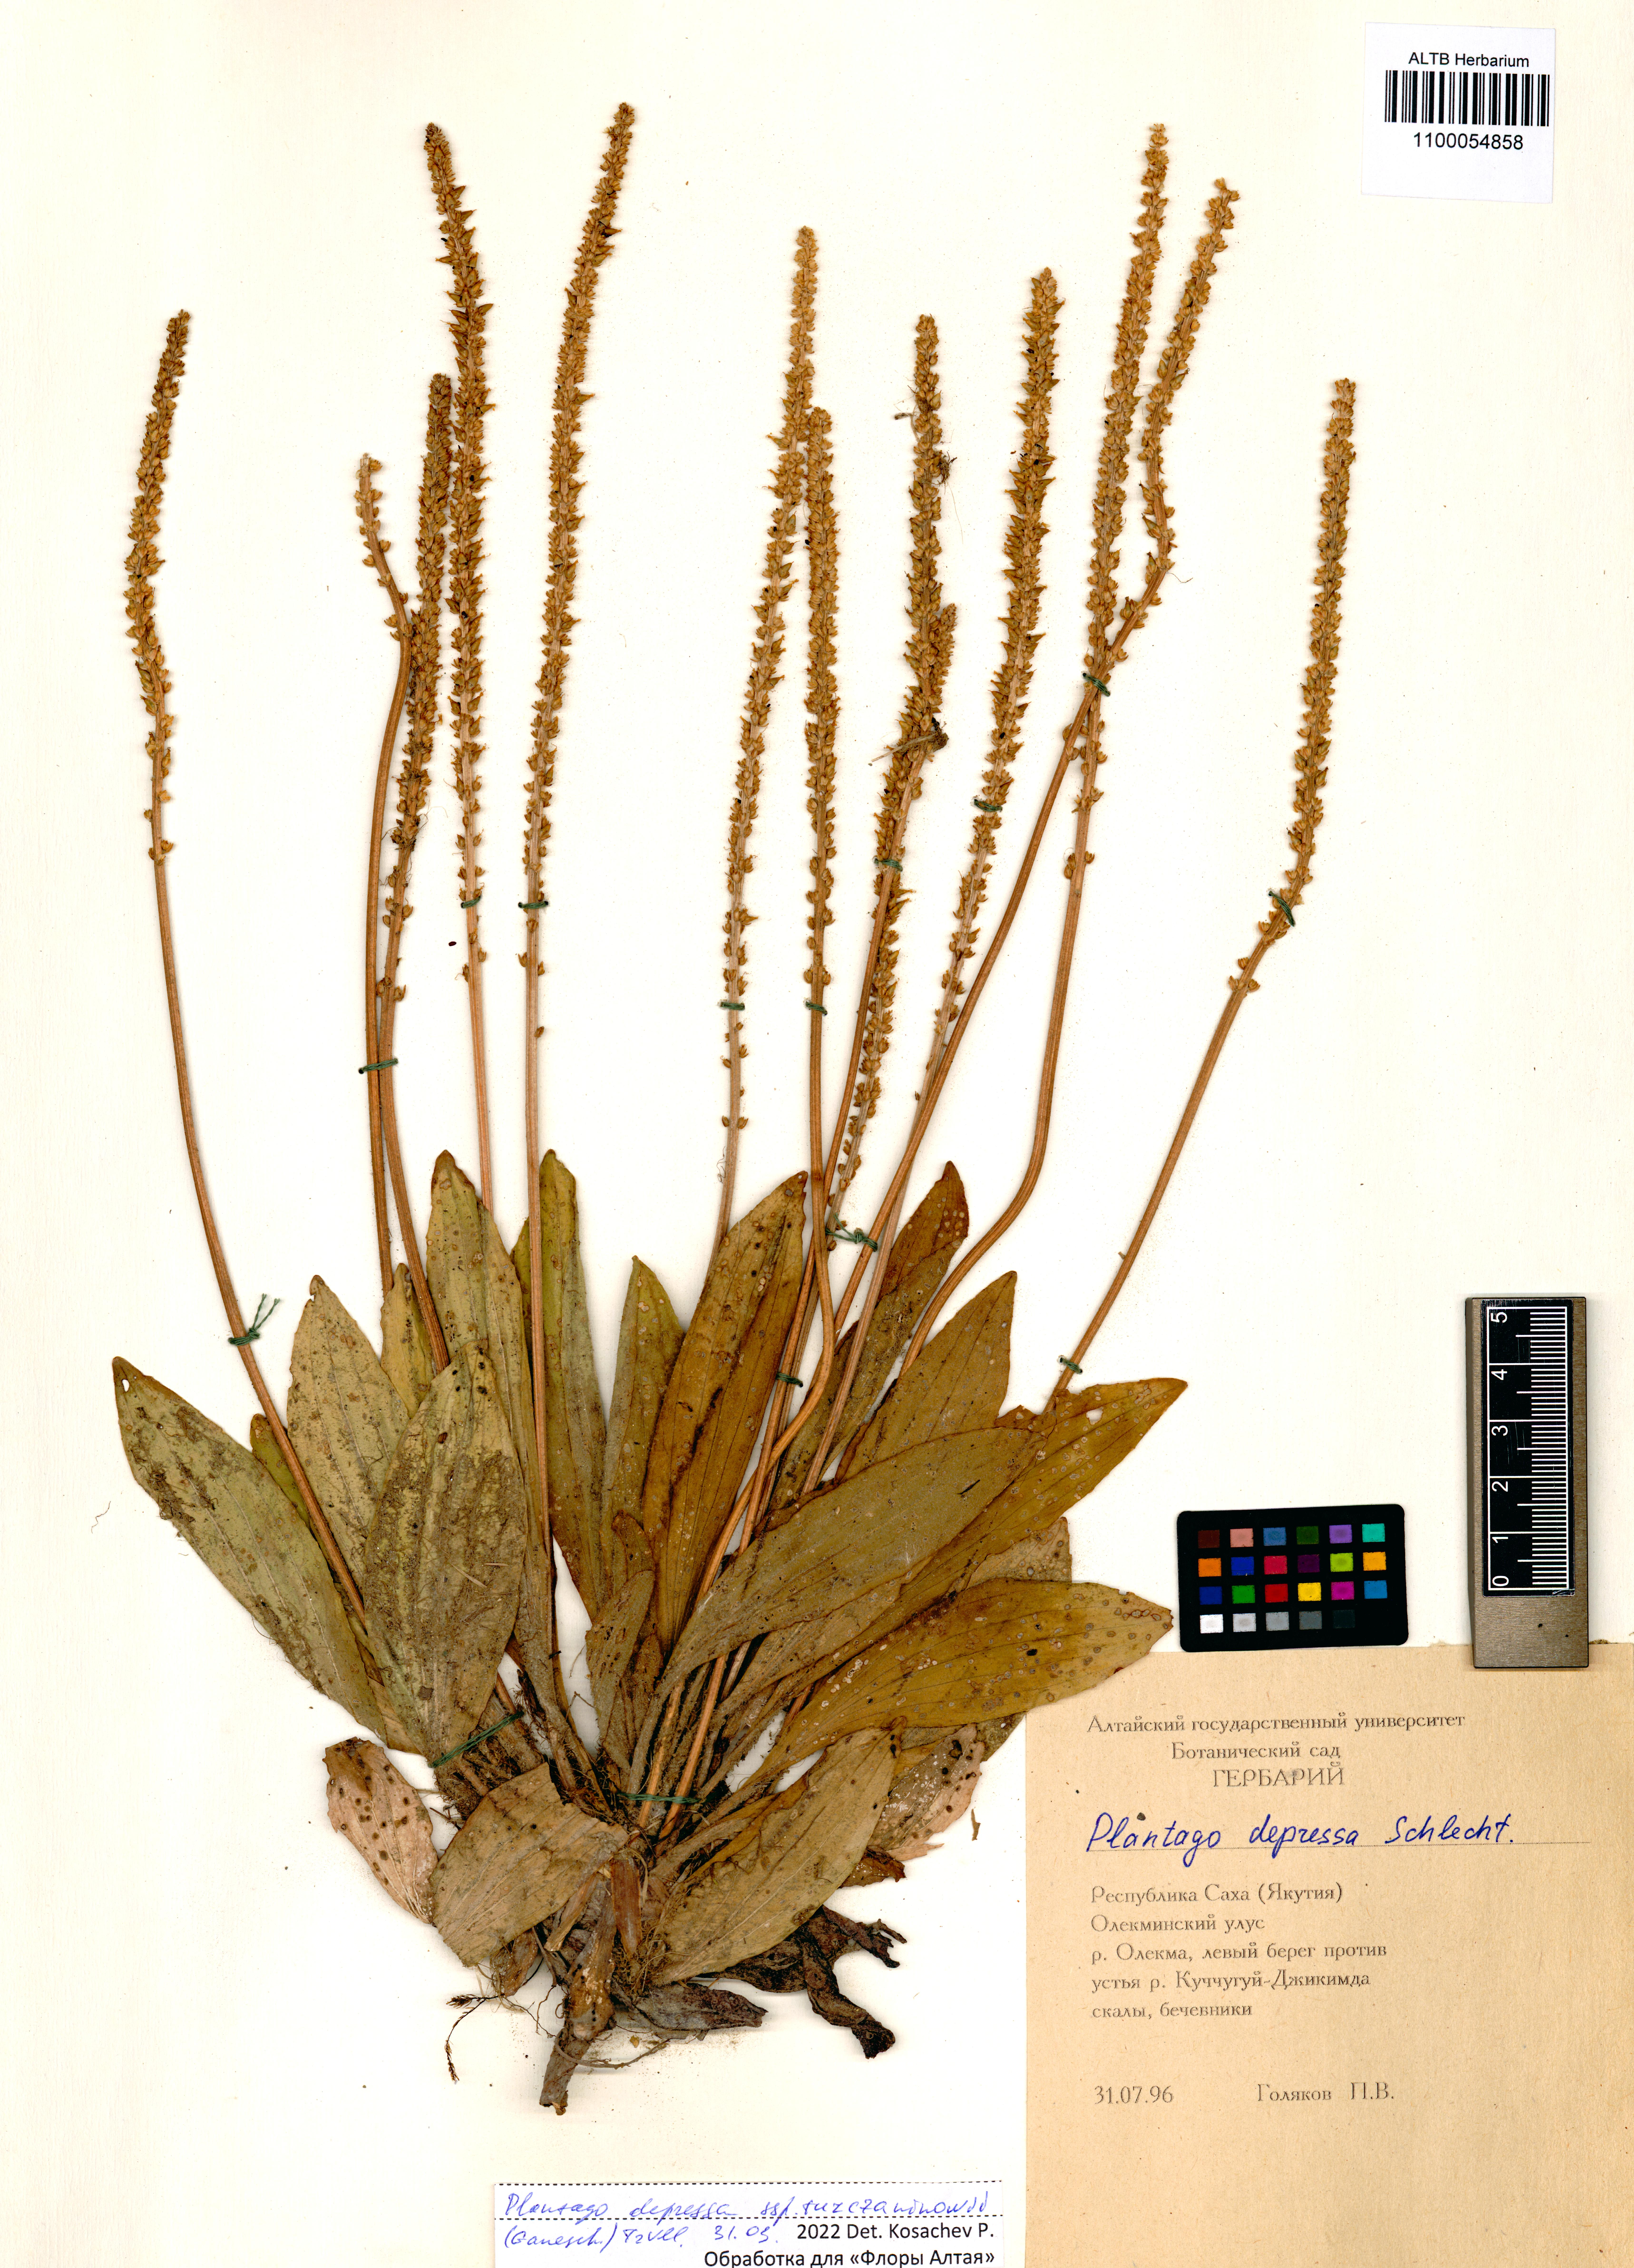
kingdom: Plantae
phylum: Tracheophyta
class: Magnoliopsida
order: Lamiales
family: Plantaginaceae
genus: Plantago
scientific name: Plantago depressa
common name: Depressed plantain
